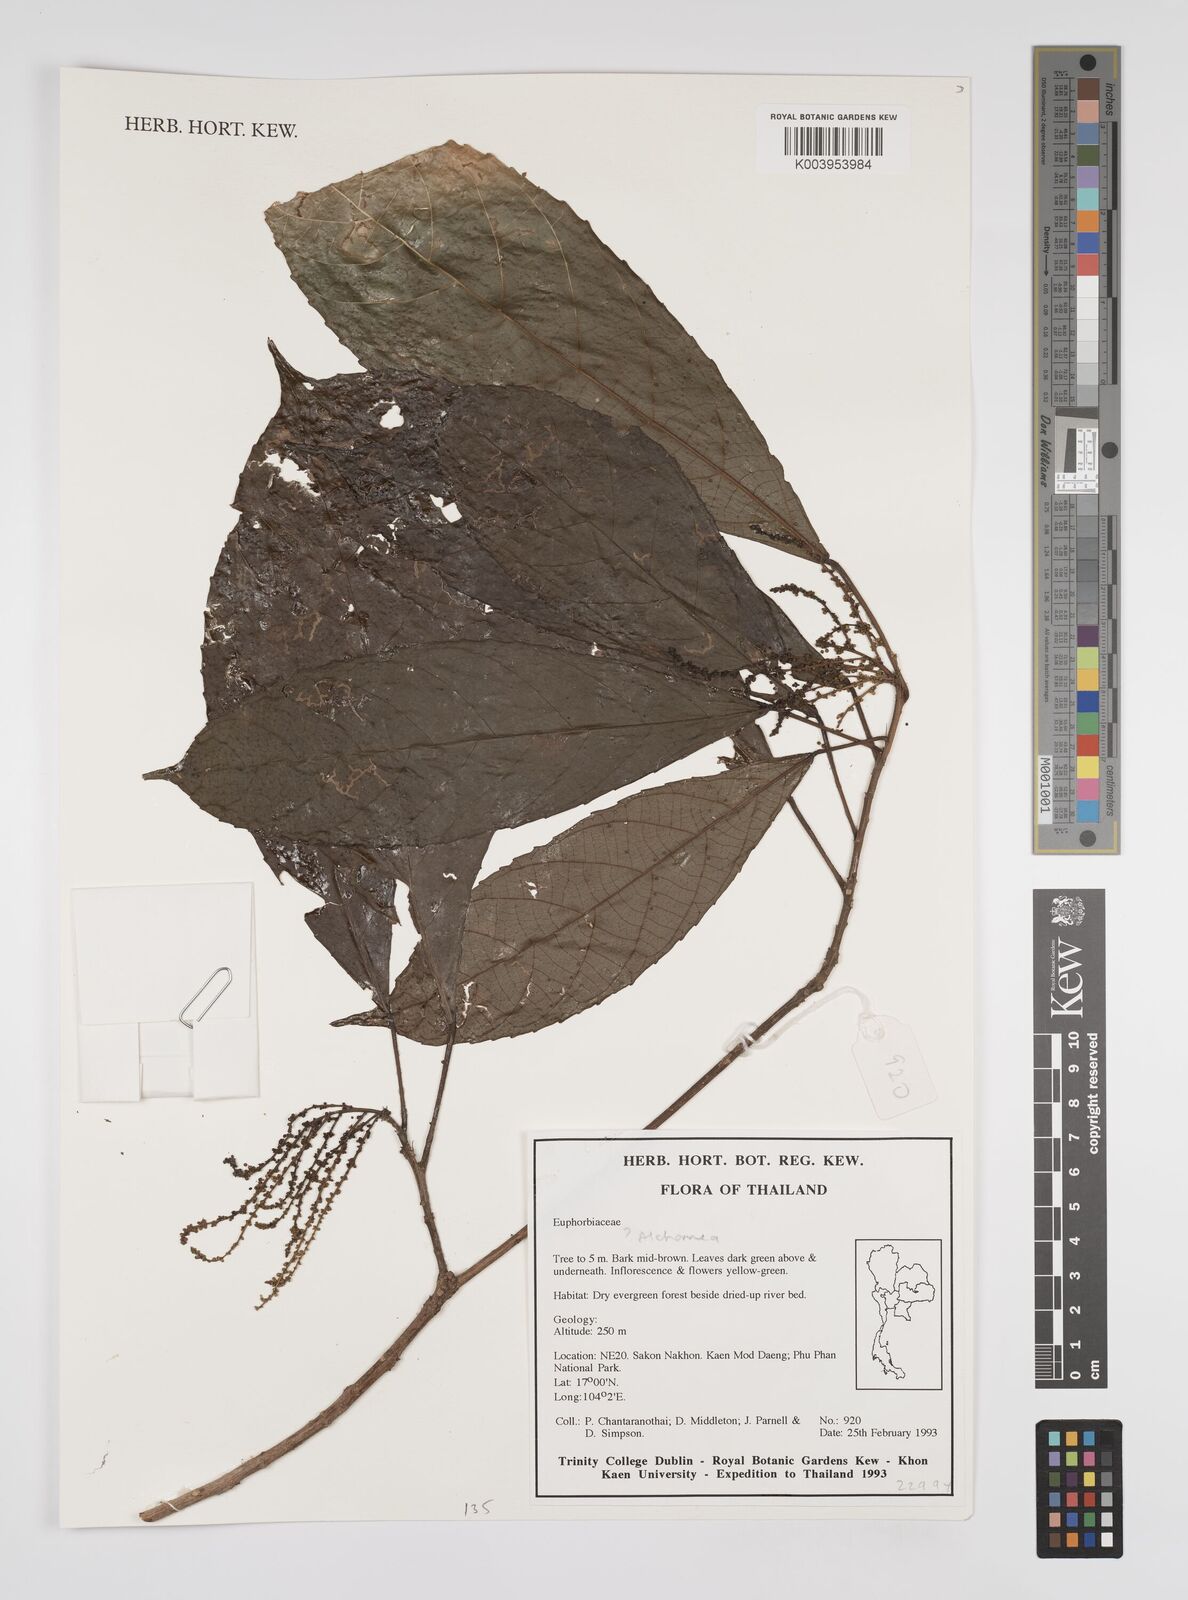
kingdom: Plantae
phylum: Tracheophyta
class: Magnoliopsida
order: Malpighiales
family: Euphorbiaceae
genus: Alchornea
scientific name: Alchornea
